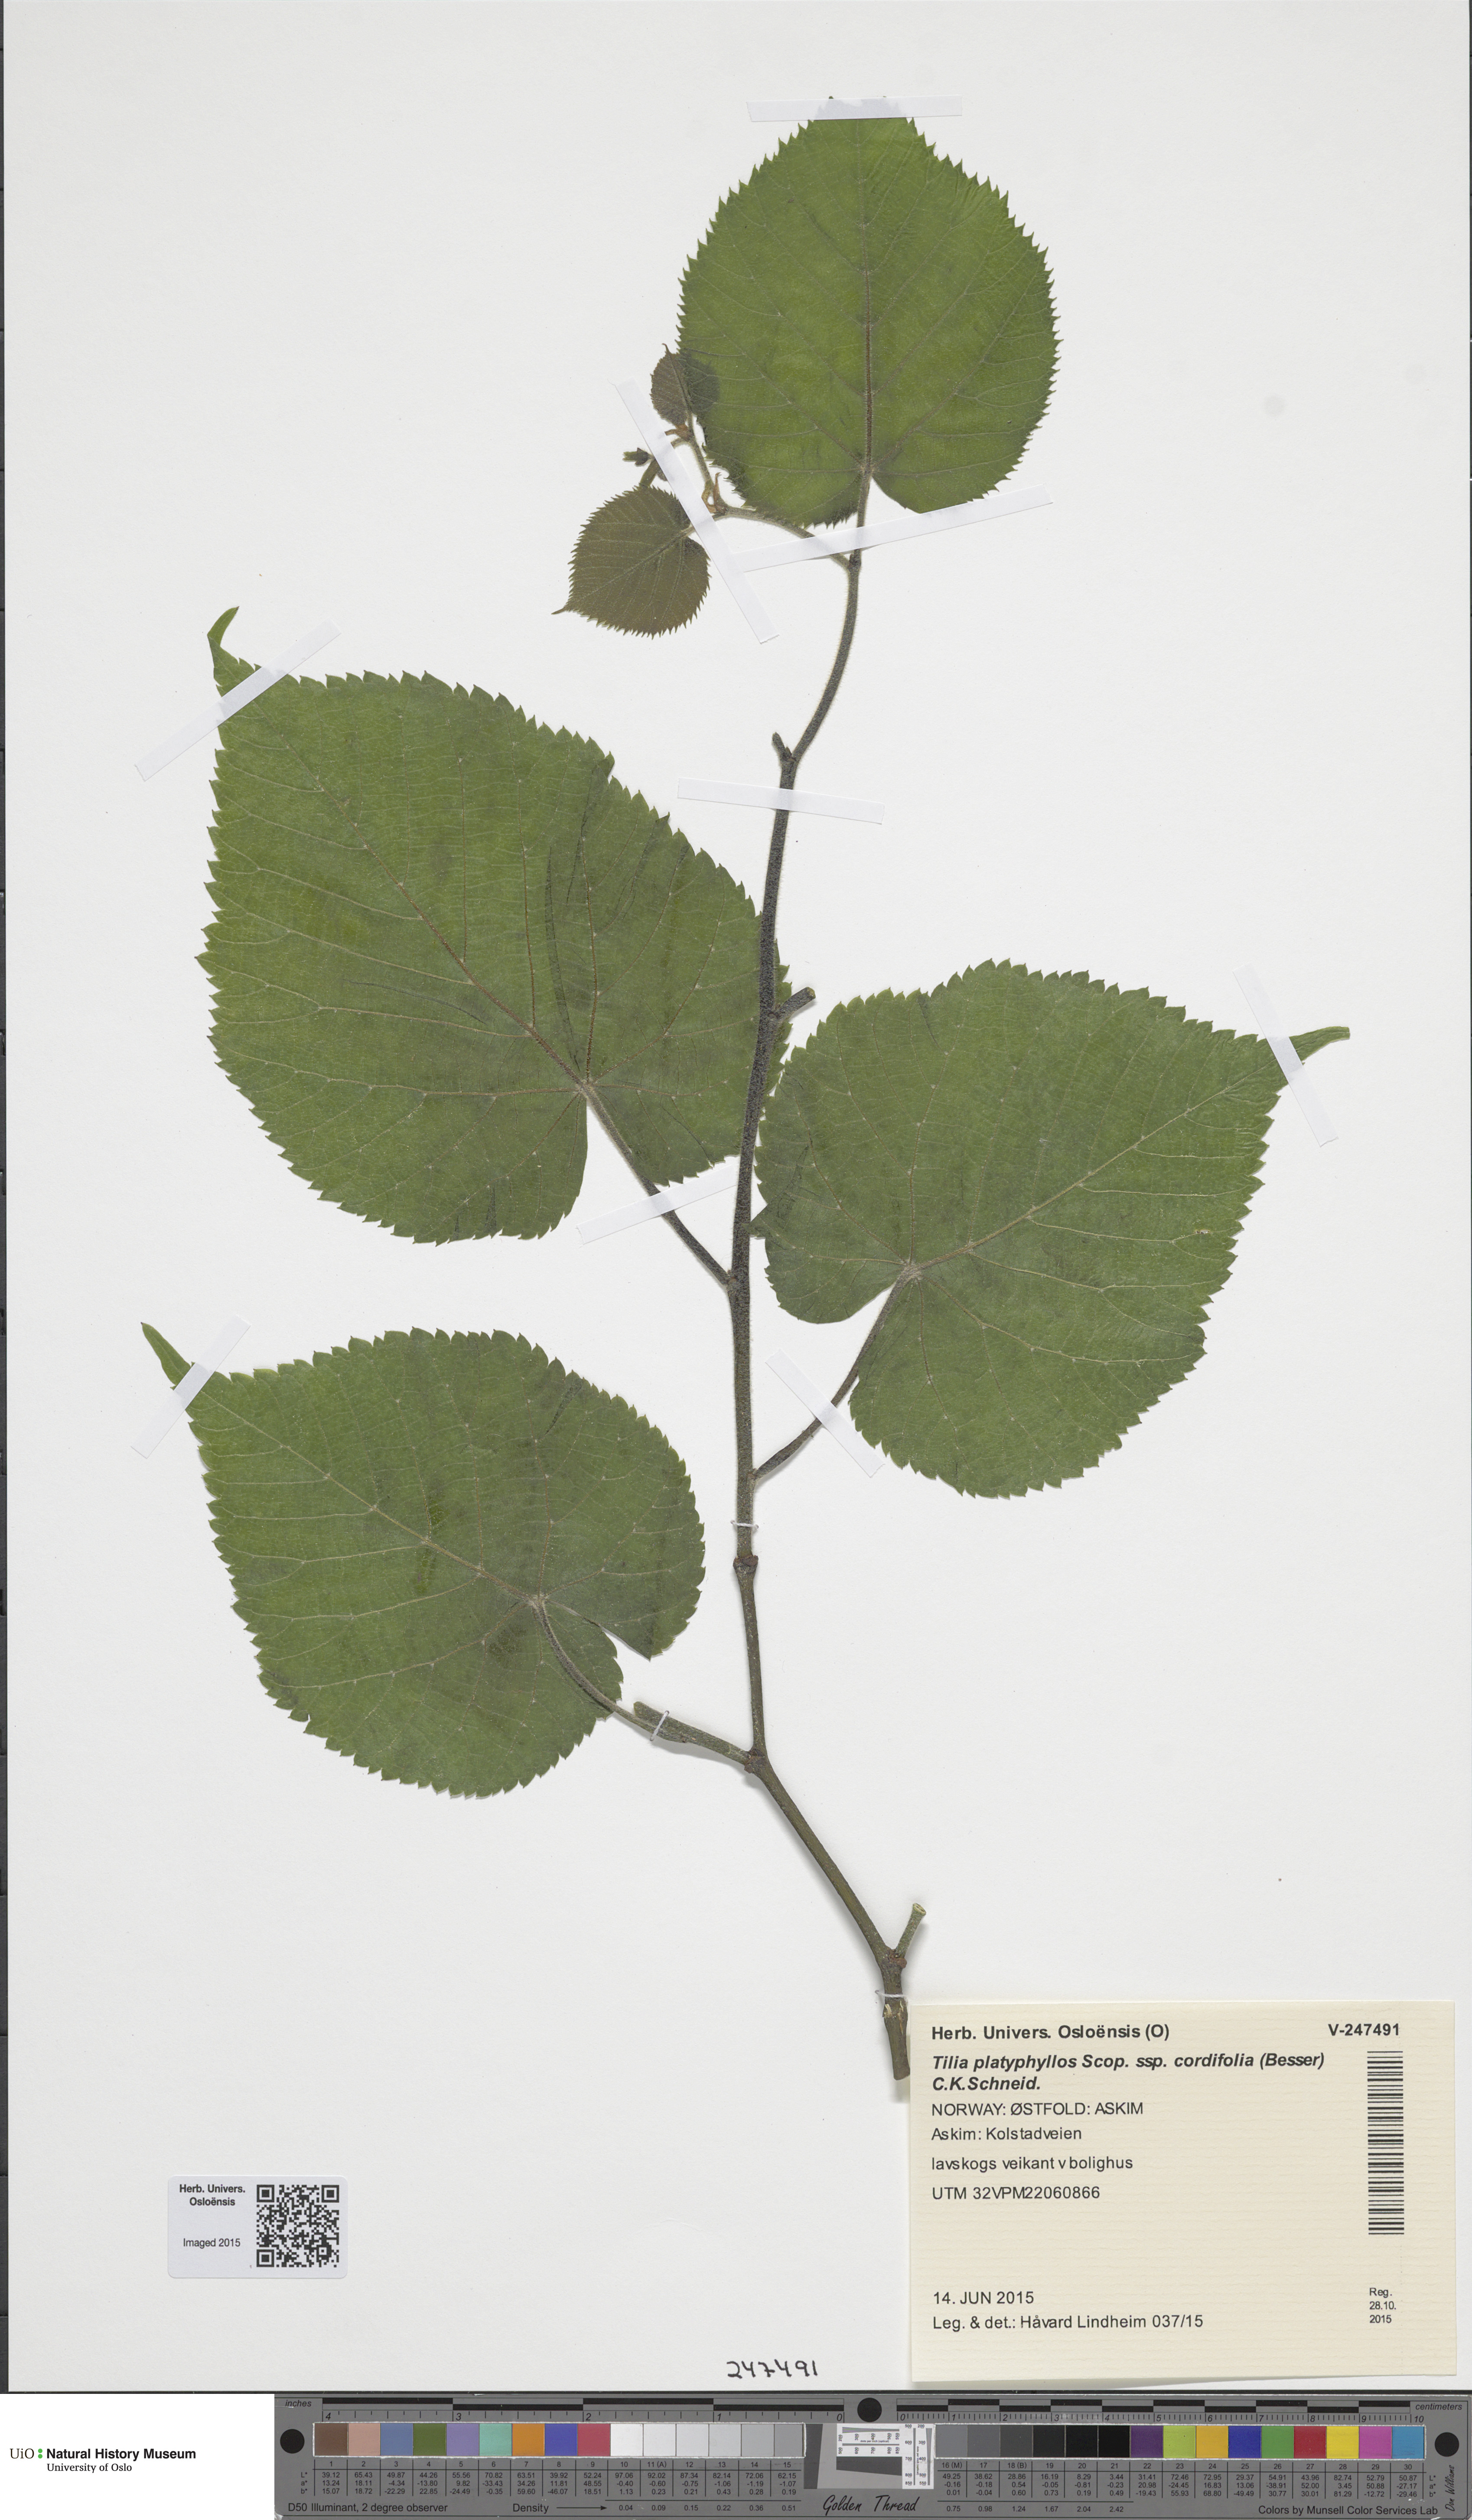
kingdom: Plantae
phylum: Tracheophyta
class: Magnoliopsida
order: Malvales
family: Malvaceae
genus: Tilia
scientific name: Tilia platyphyllos
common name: Large-leaved lime
